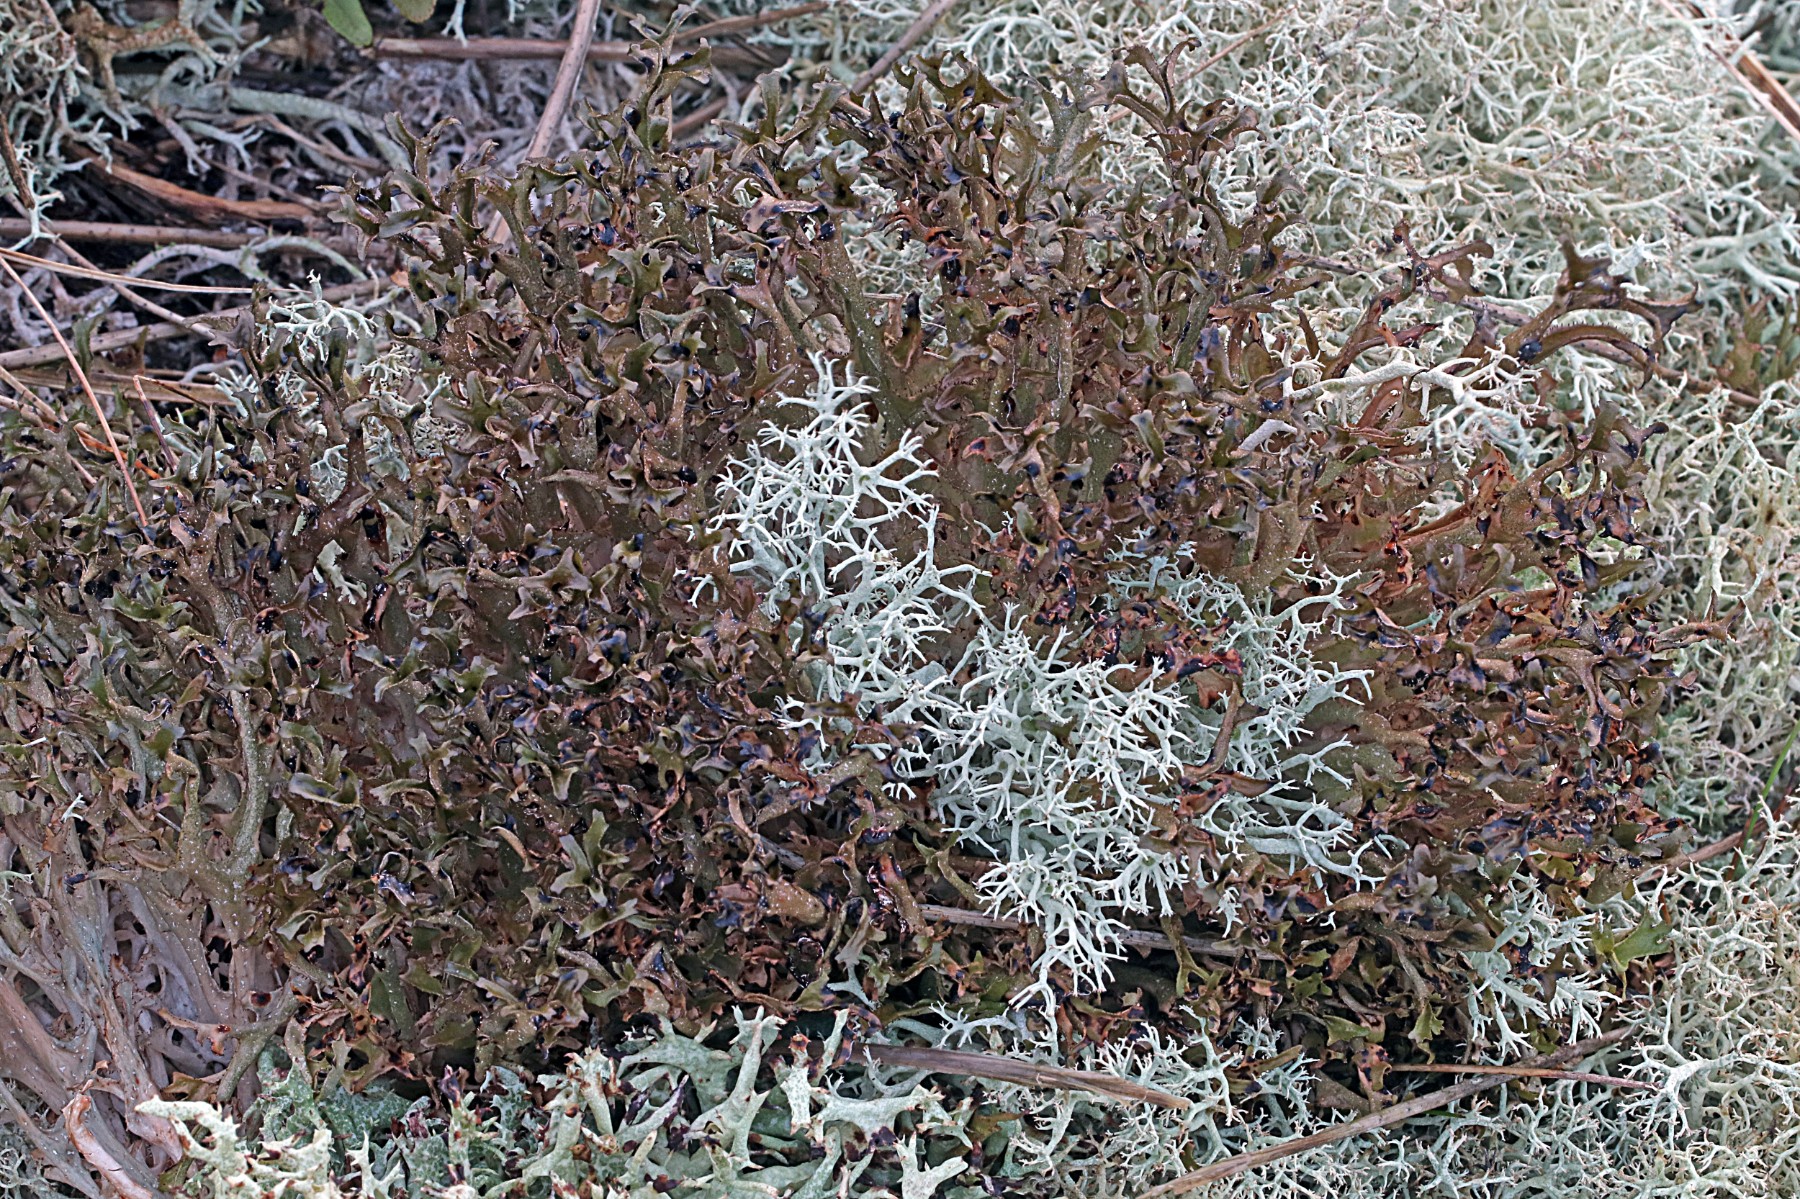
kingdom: Fungi
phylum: Ascomycota
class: Lecanoromycetes
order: Lecanorales
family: Parmeliaceae
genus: Cetraria
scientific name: Cetraria islandica
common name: islandsk kruslav
